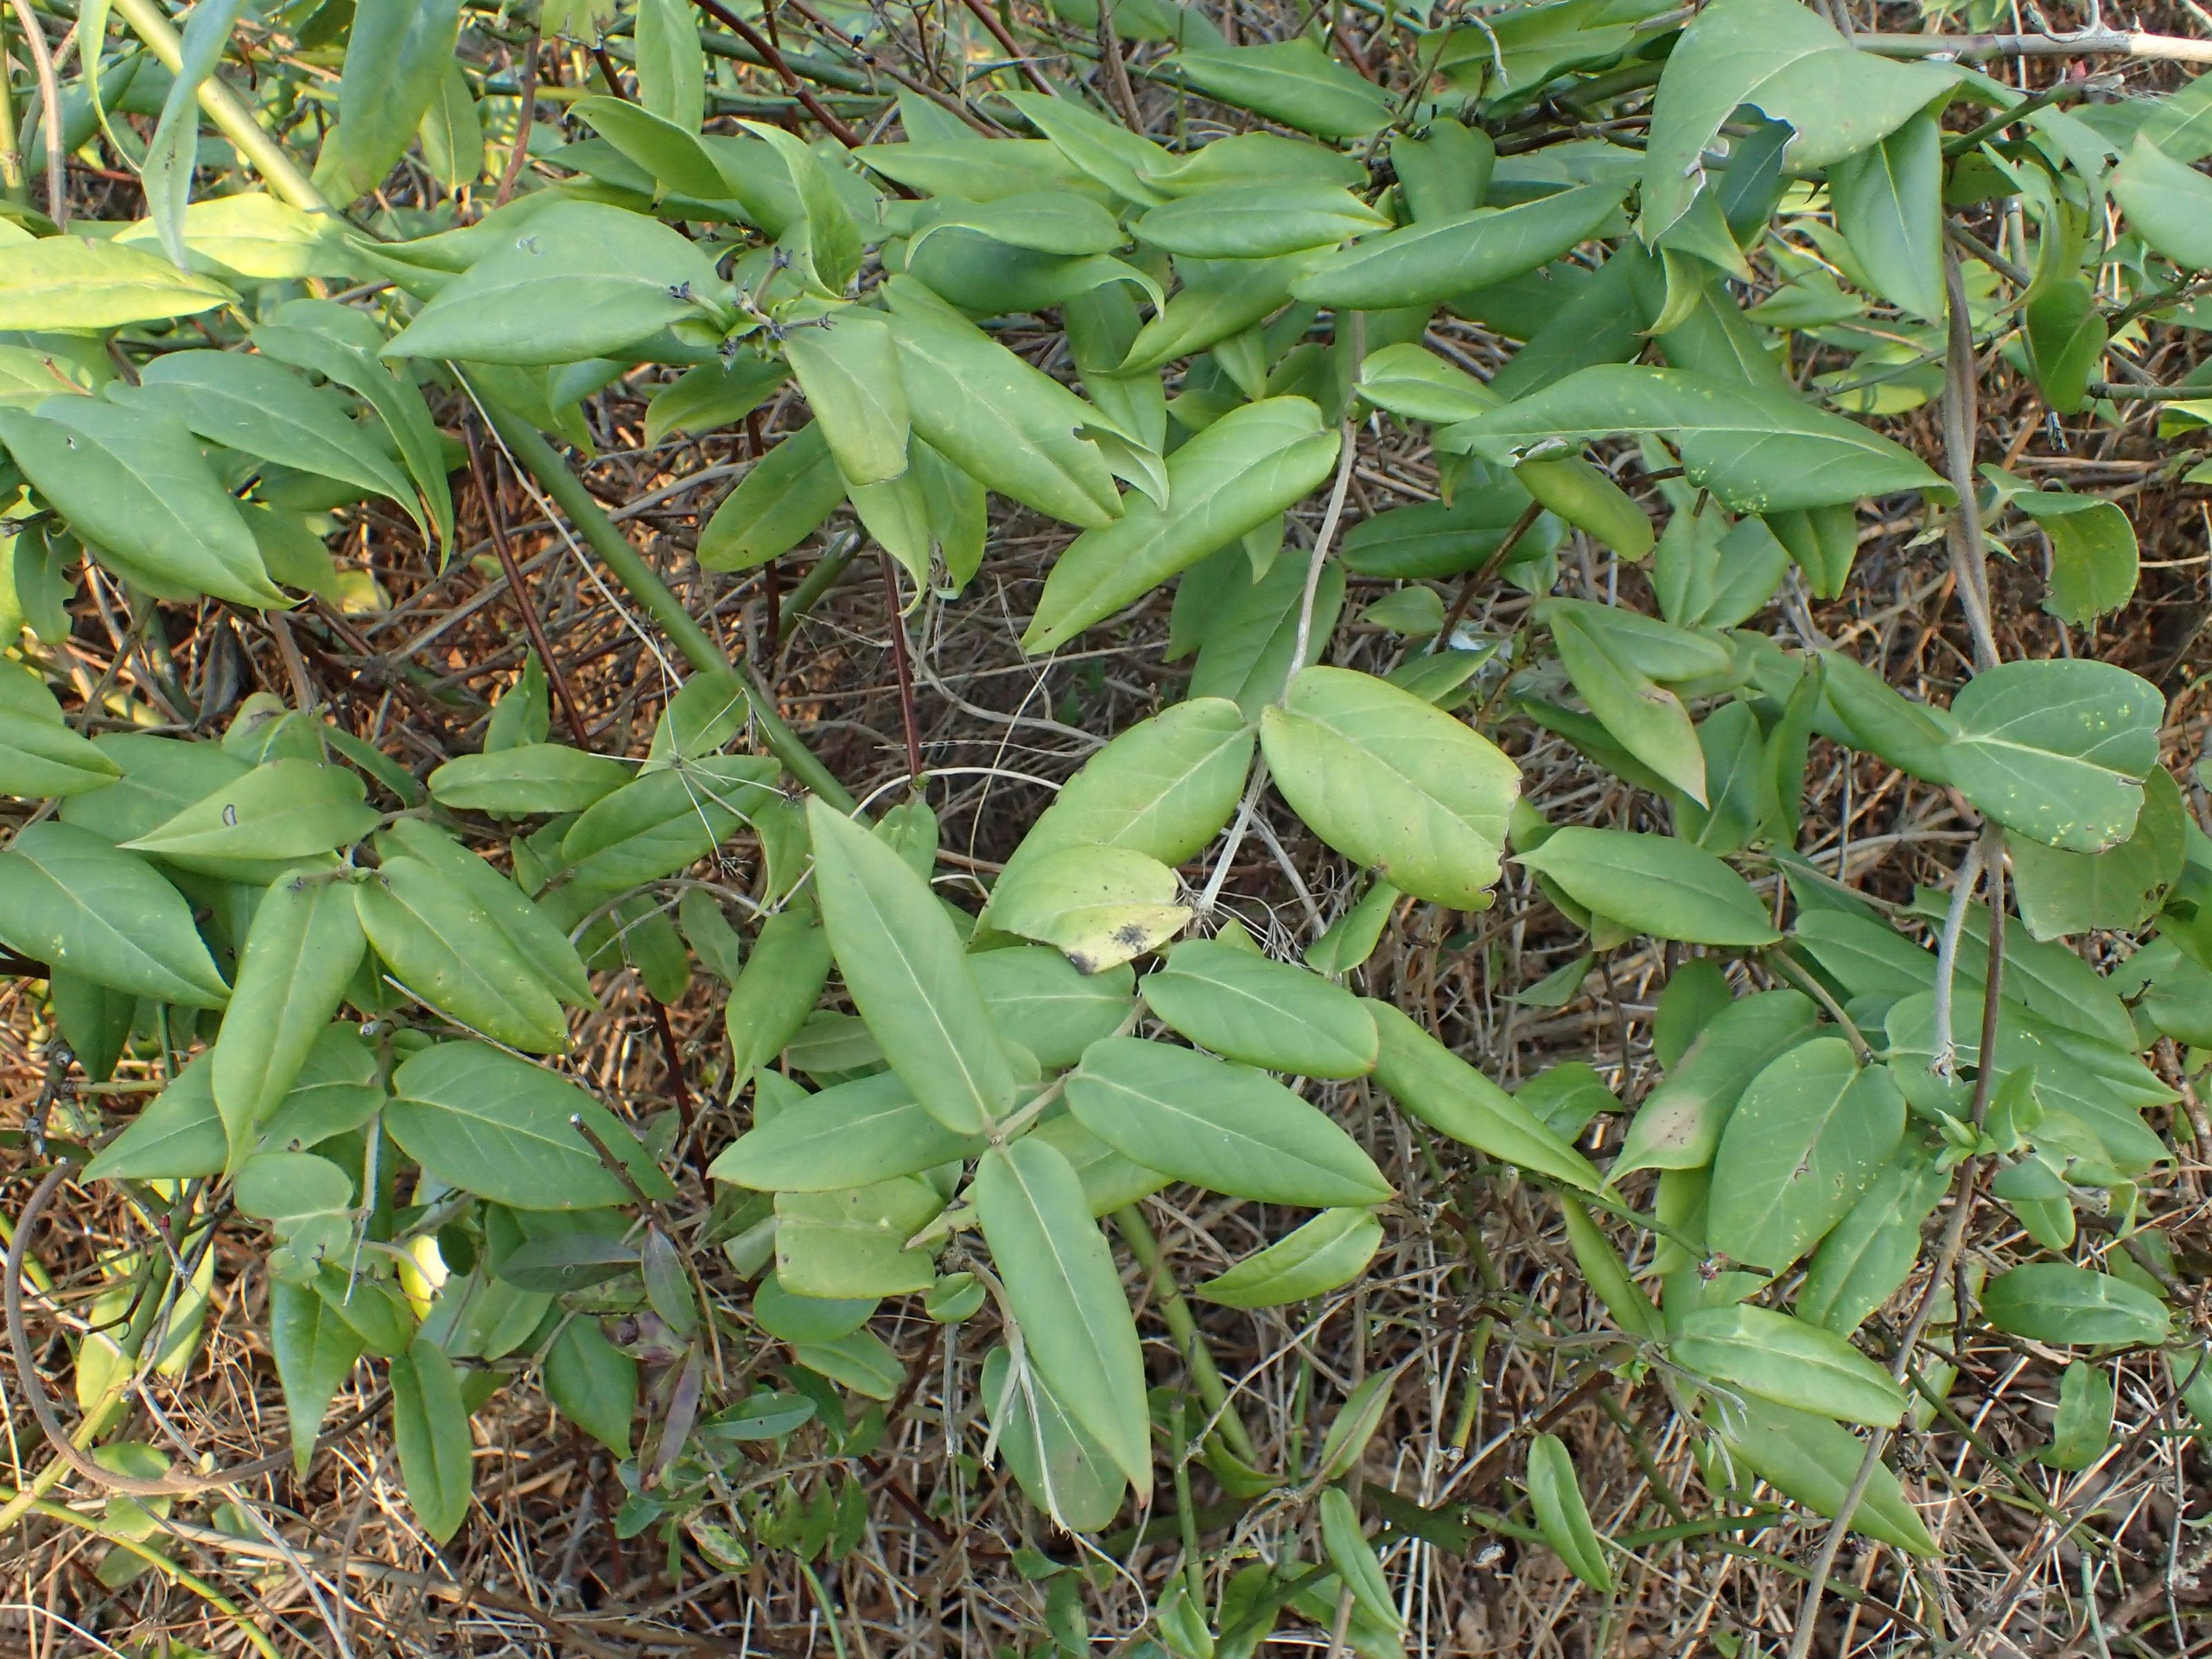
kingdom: Plantae
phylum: Tracheophyta
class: Magnoliopsida
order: Dipsacales
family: Caprifoliaceae
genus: Lonicera
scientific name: Lonicera acuminata
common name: Henrys gedeblad
